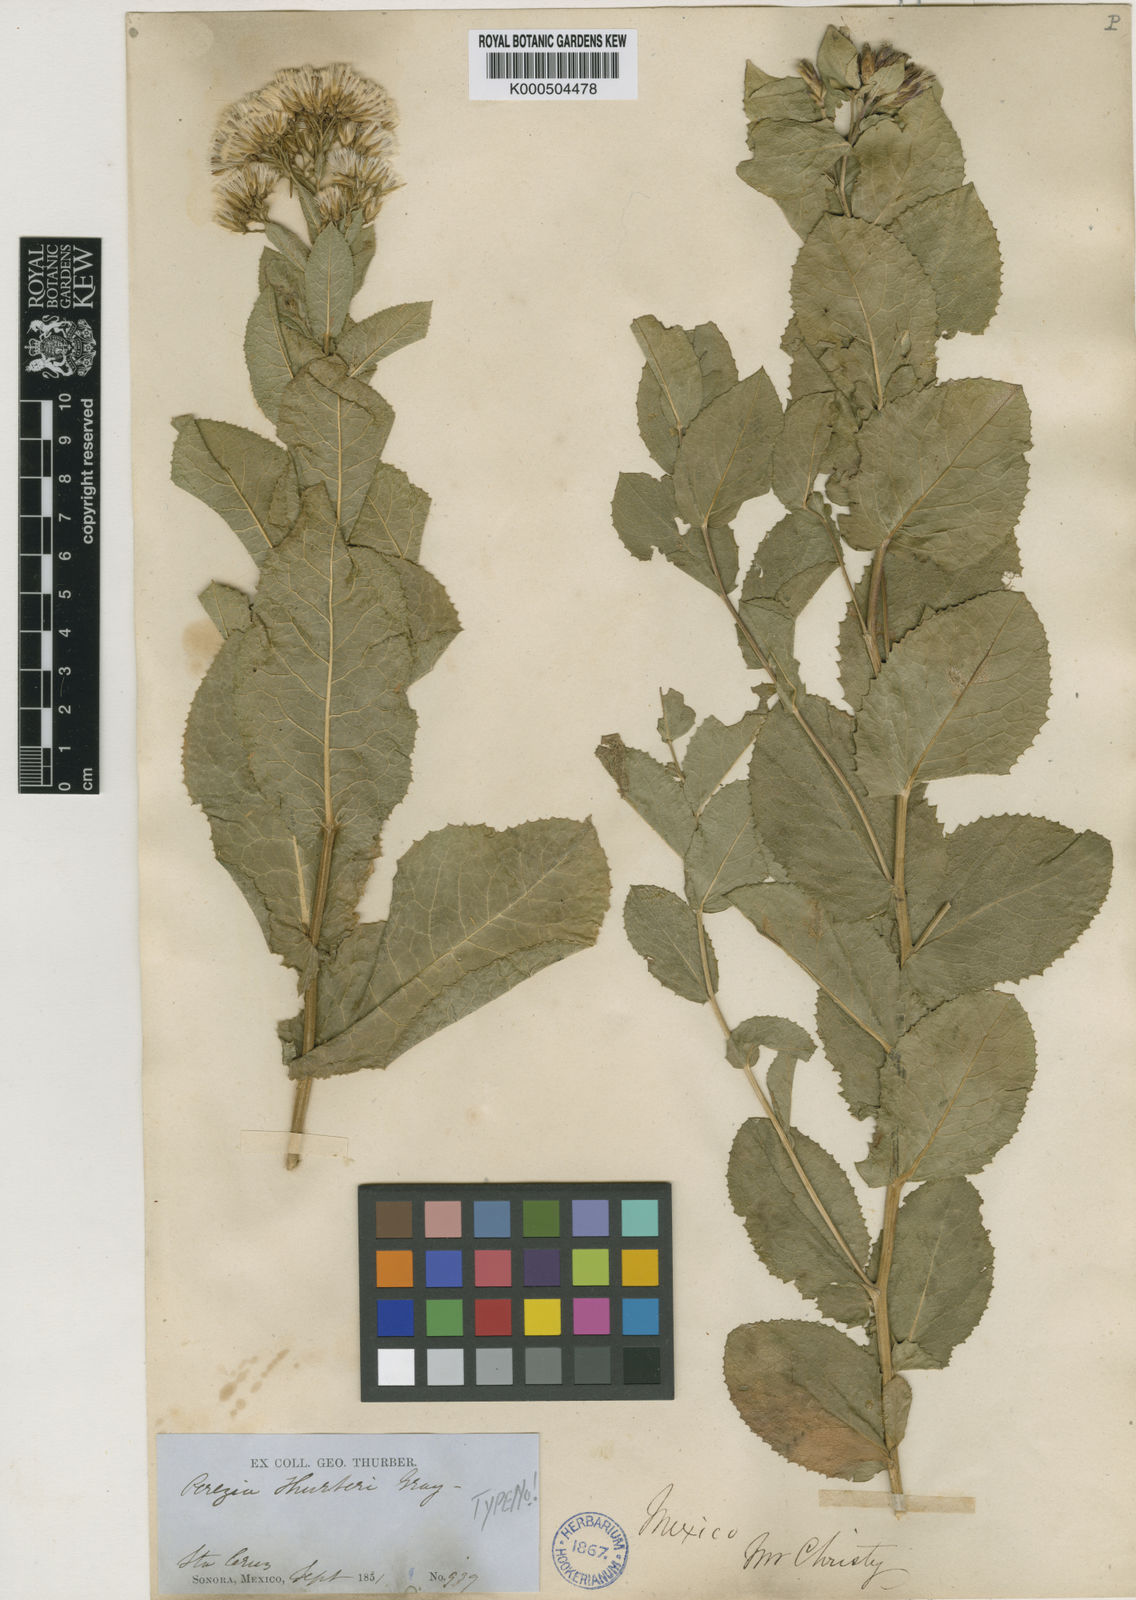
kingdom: Plantae
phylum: Tracheophyta
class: Magnoliopsida
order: Asterales
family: Asteraceae
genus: Acourtia
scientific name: Acourtia thurberi
